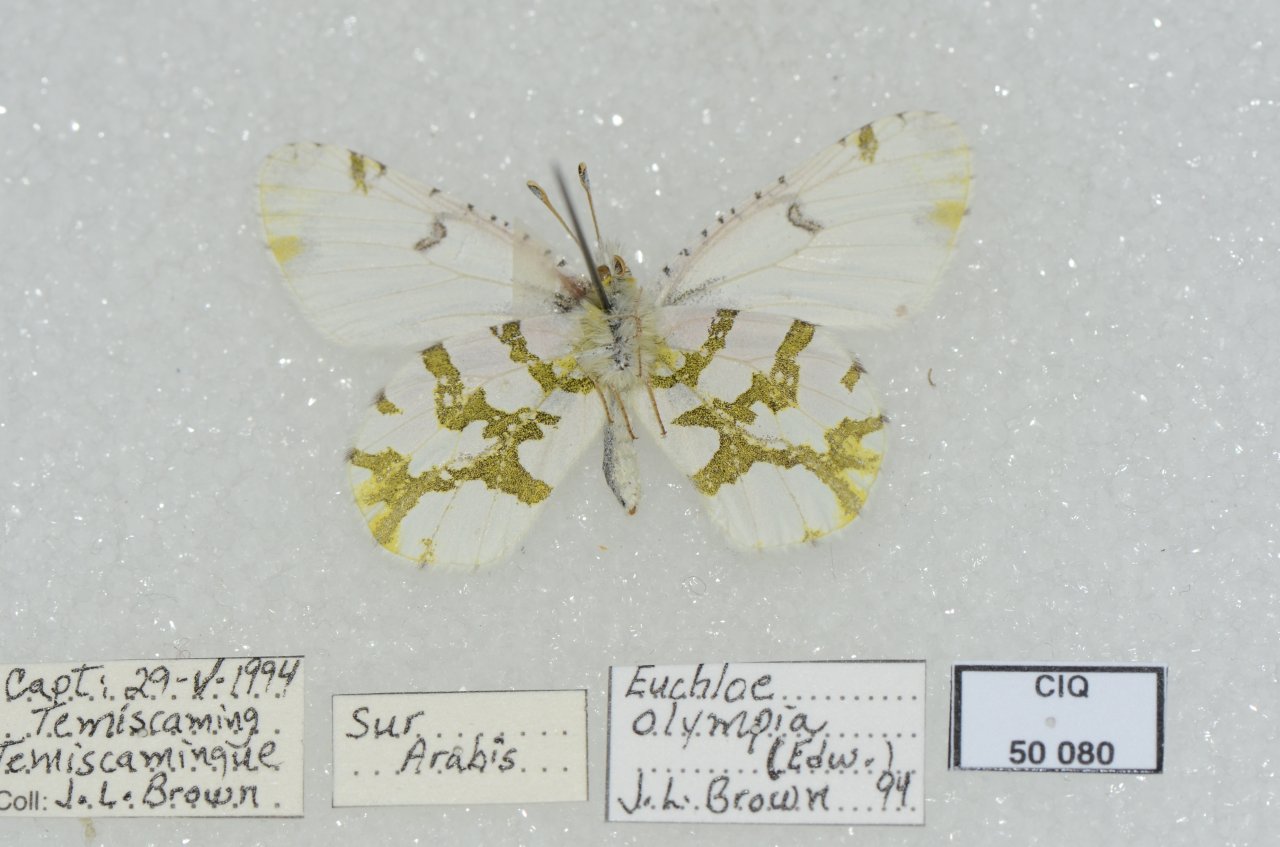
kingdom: Animalia
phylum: Arthropoda
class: Insecta
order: Lepidoptera
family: Pieridae
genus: Euchloe
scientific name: Euchloe olympia
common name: Olympia Marble
